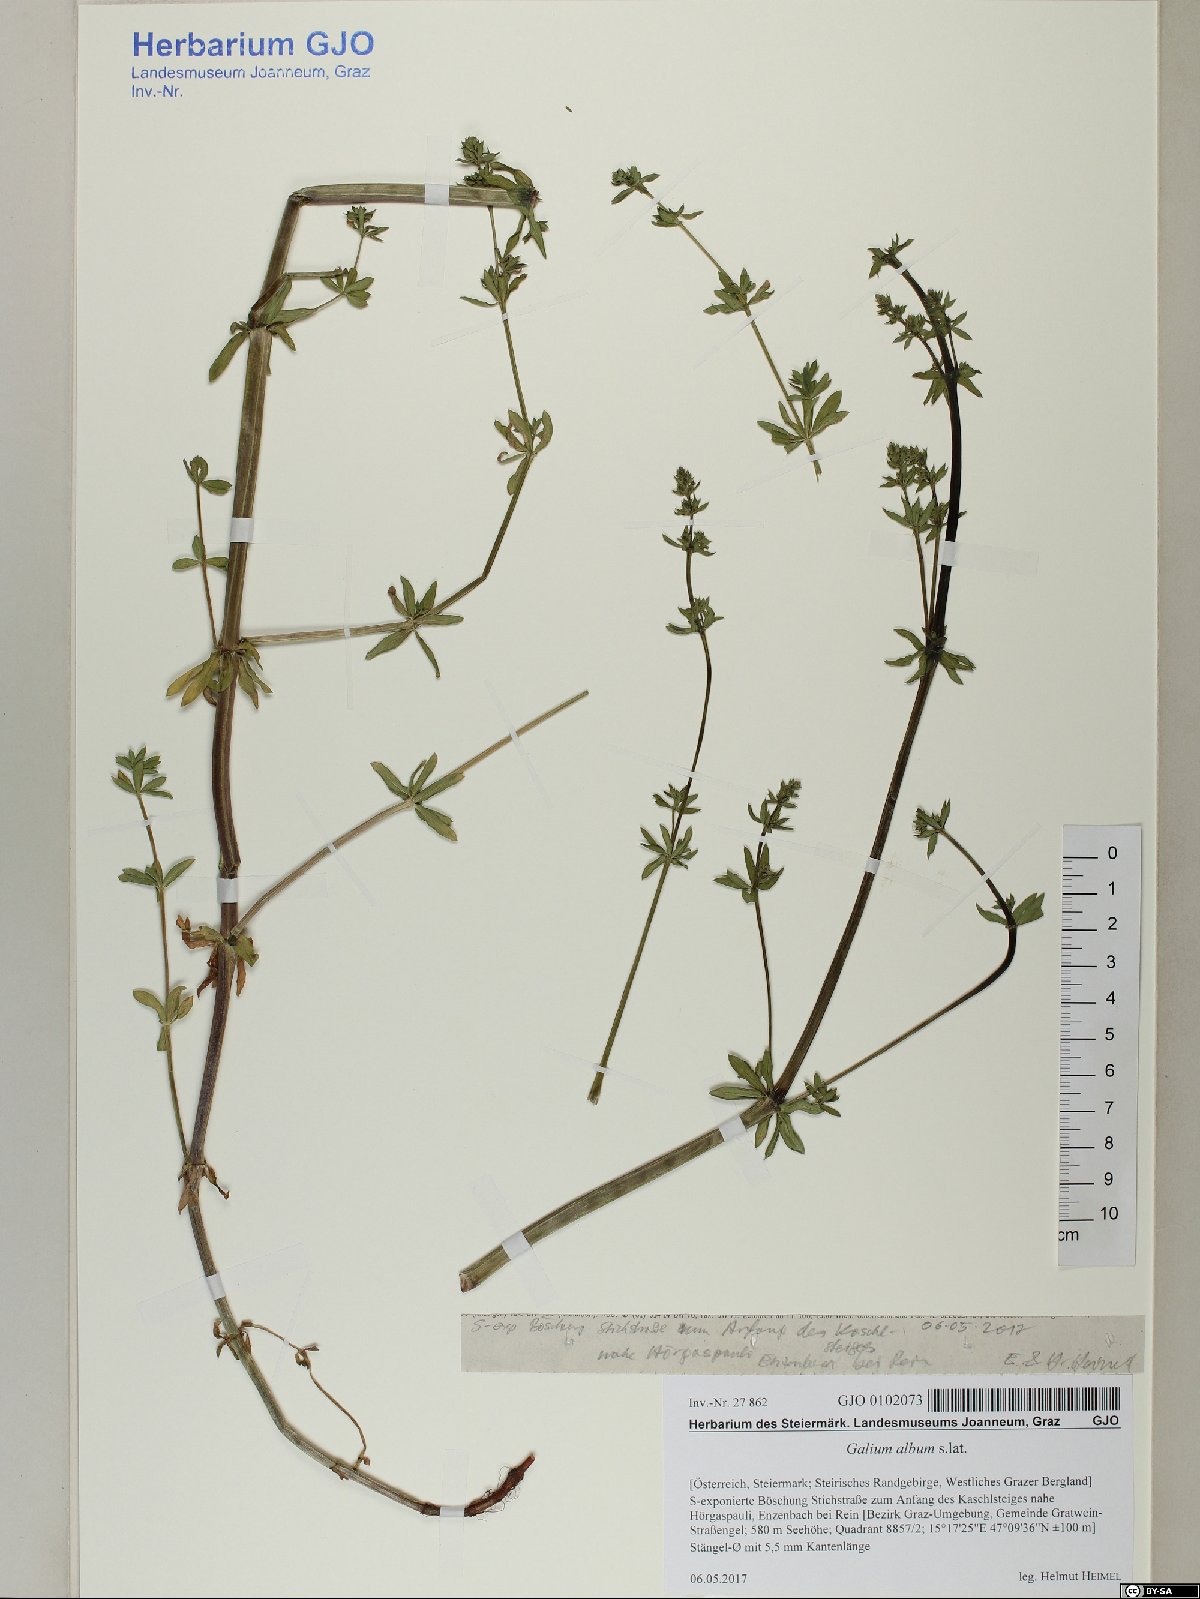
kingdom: Plantae
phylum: Tracheophyta
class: Magnoliopsida
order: Gentianales
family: Rubiaceae
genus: Galium
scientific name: Galium album
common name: White bedstraw
